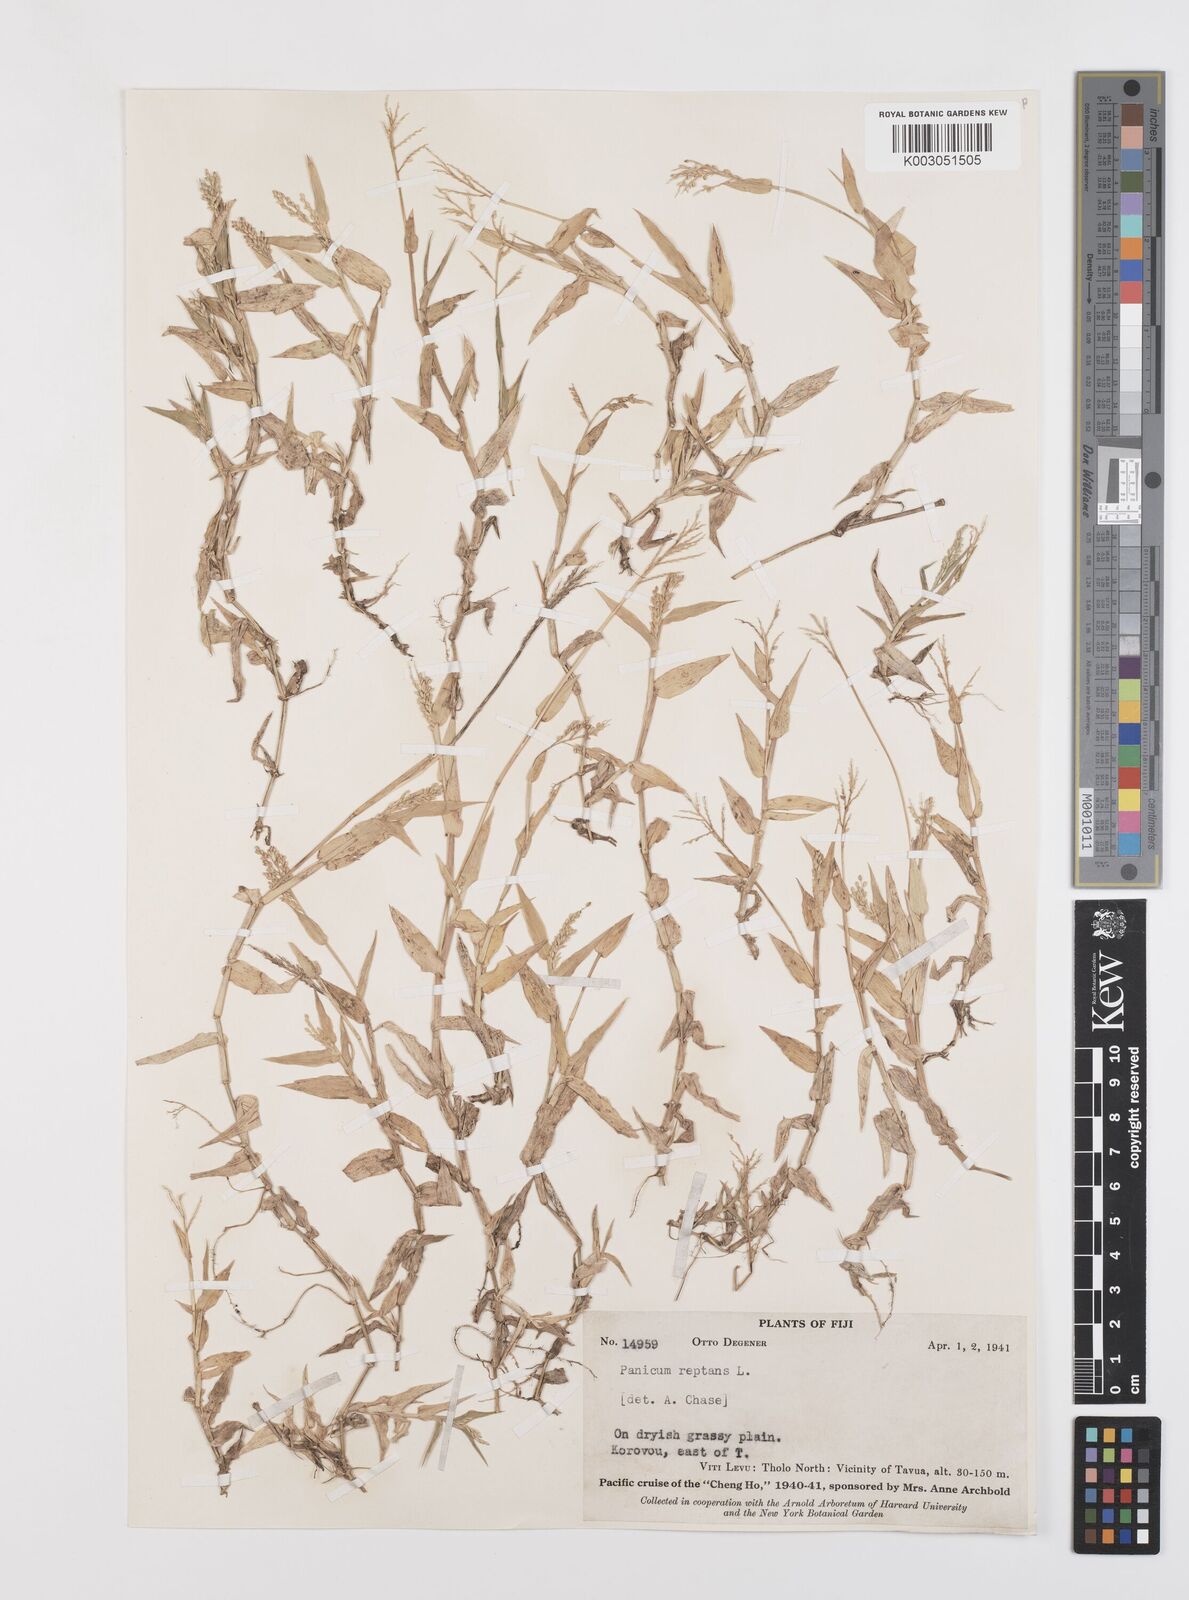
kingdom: Plantae
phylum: Tracheophyta
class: Liliopsida
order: Poales
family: Poaceae
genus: Urochloa
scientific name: Urochloa reptans
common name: Sprawling signalgrass
